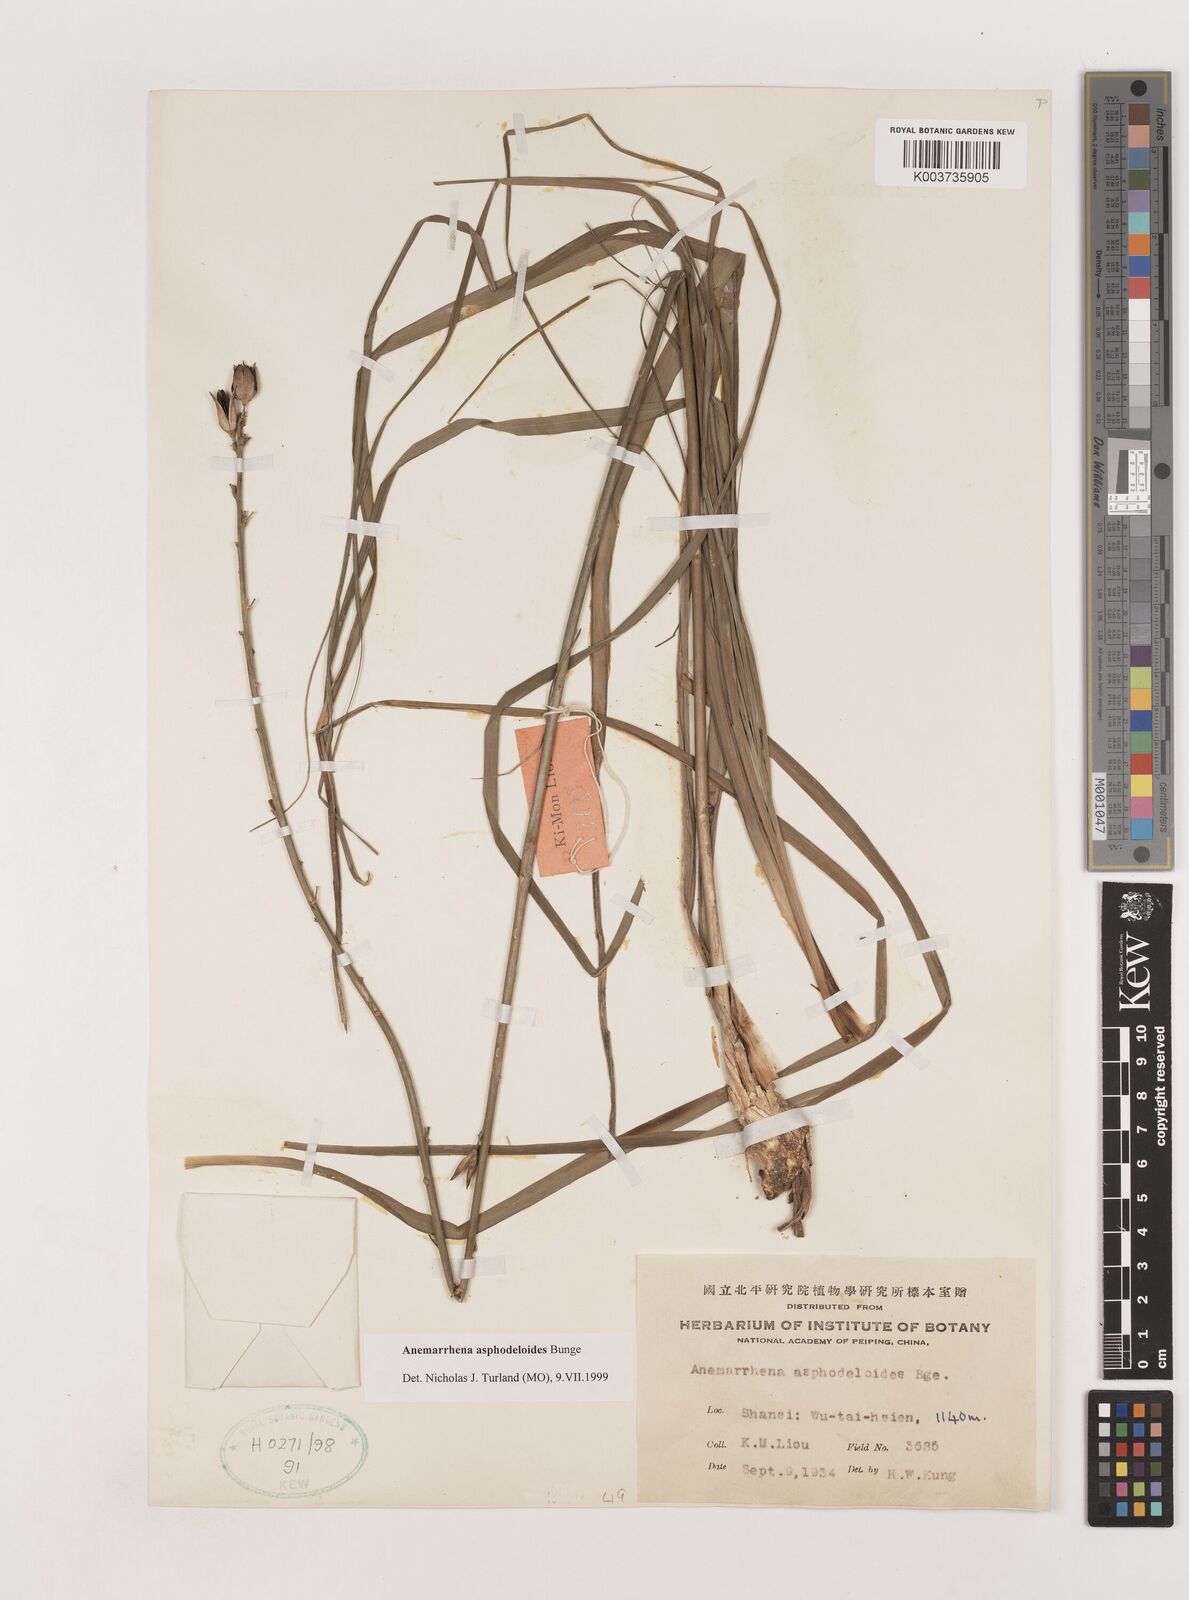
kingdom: Plantae
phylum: Tracheophyta
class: Liliopsida
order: Asparagales
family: Asparagaceae
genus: Anemarrhena
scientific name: Anemarrhena asphodeloides
